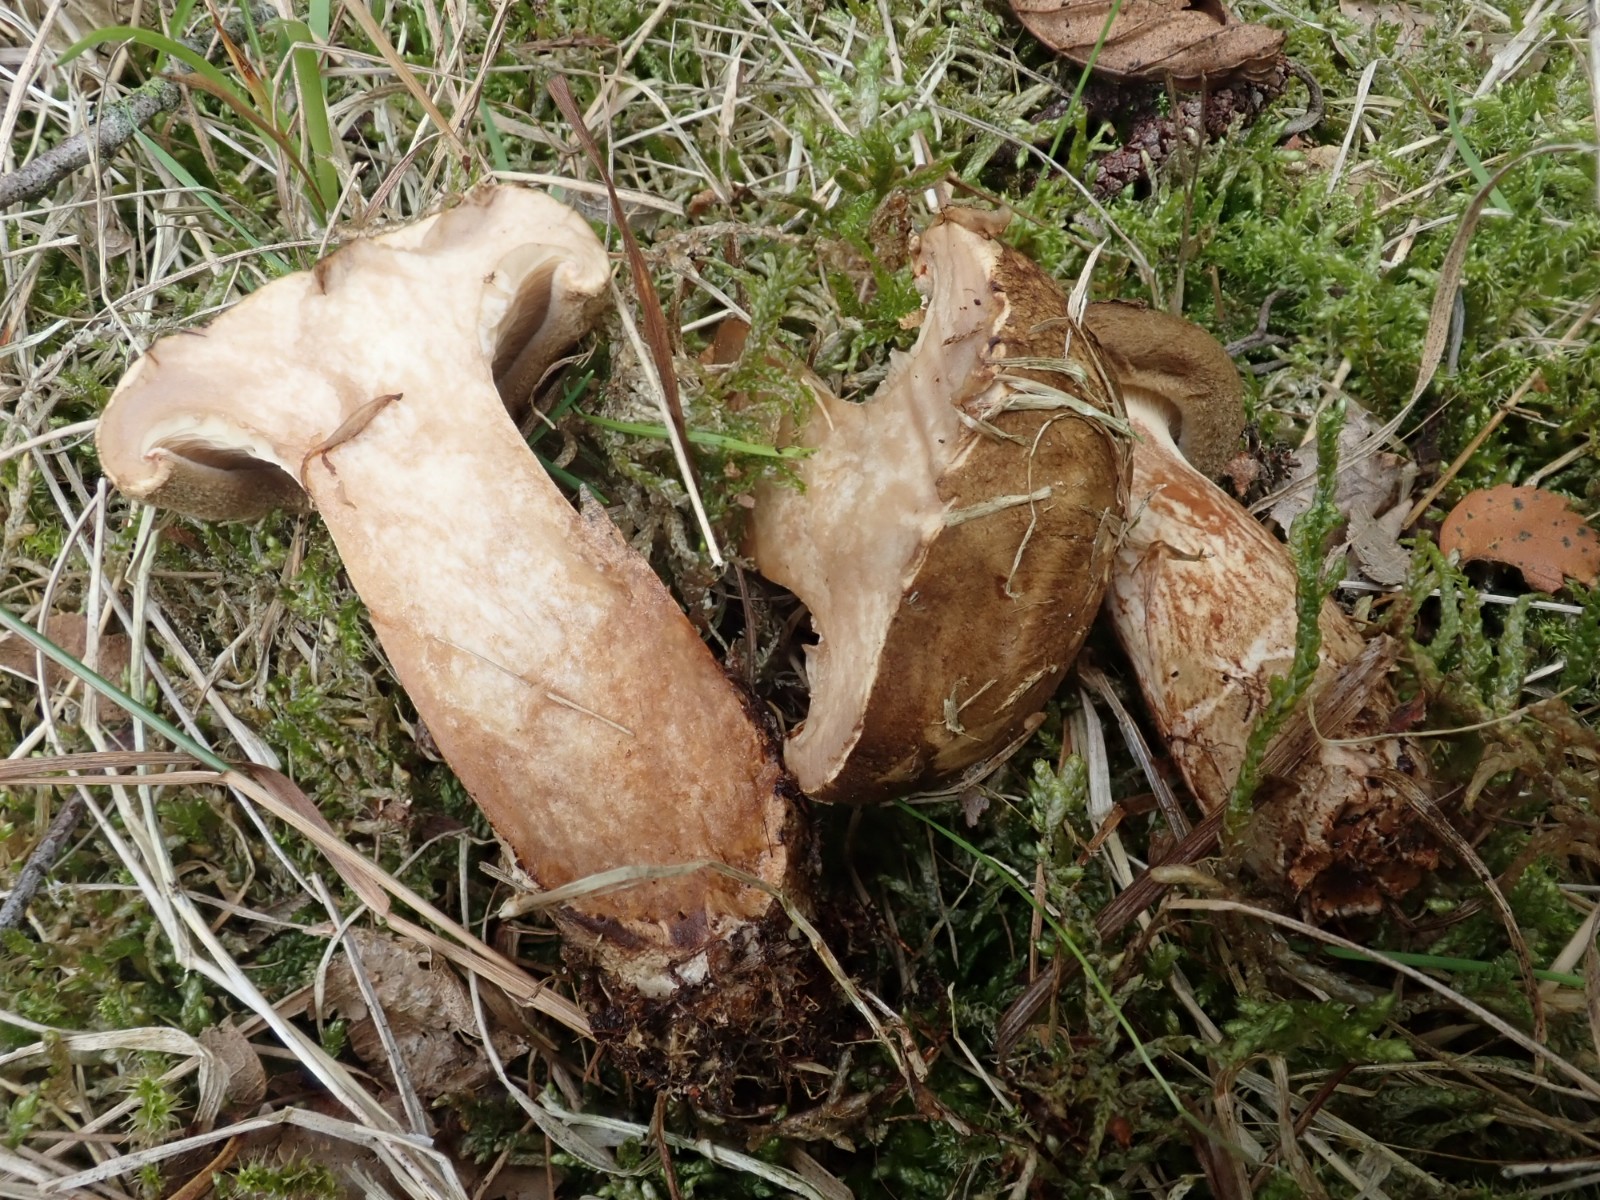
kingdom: Fungi
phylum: Basidiomycota
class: Agaricomycetes
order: Boletales
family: Paxillaceae
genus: Paxillus
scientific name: Paxillus
